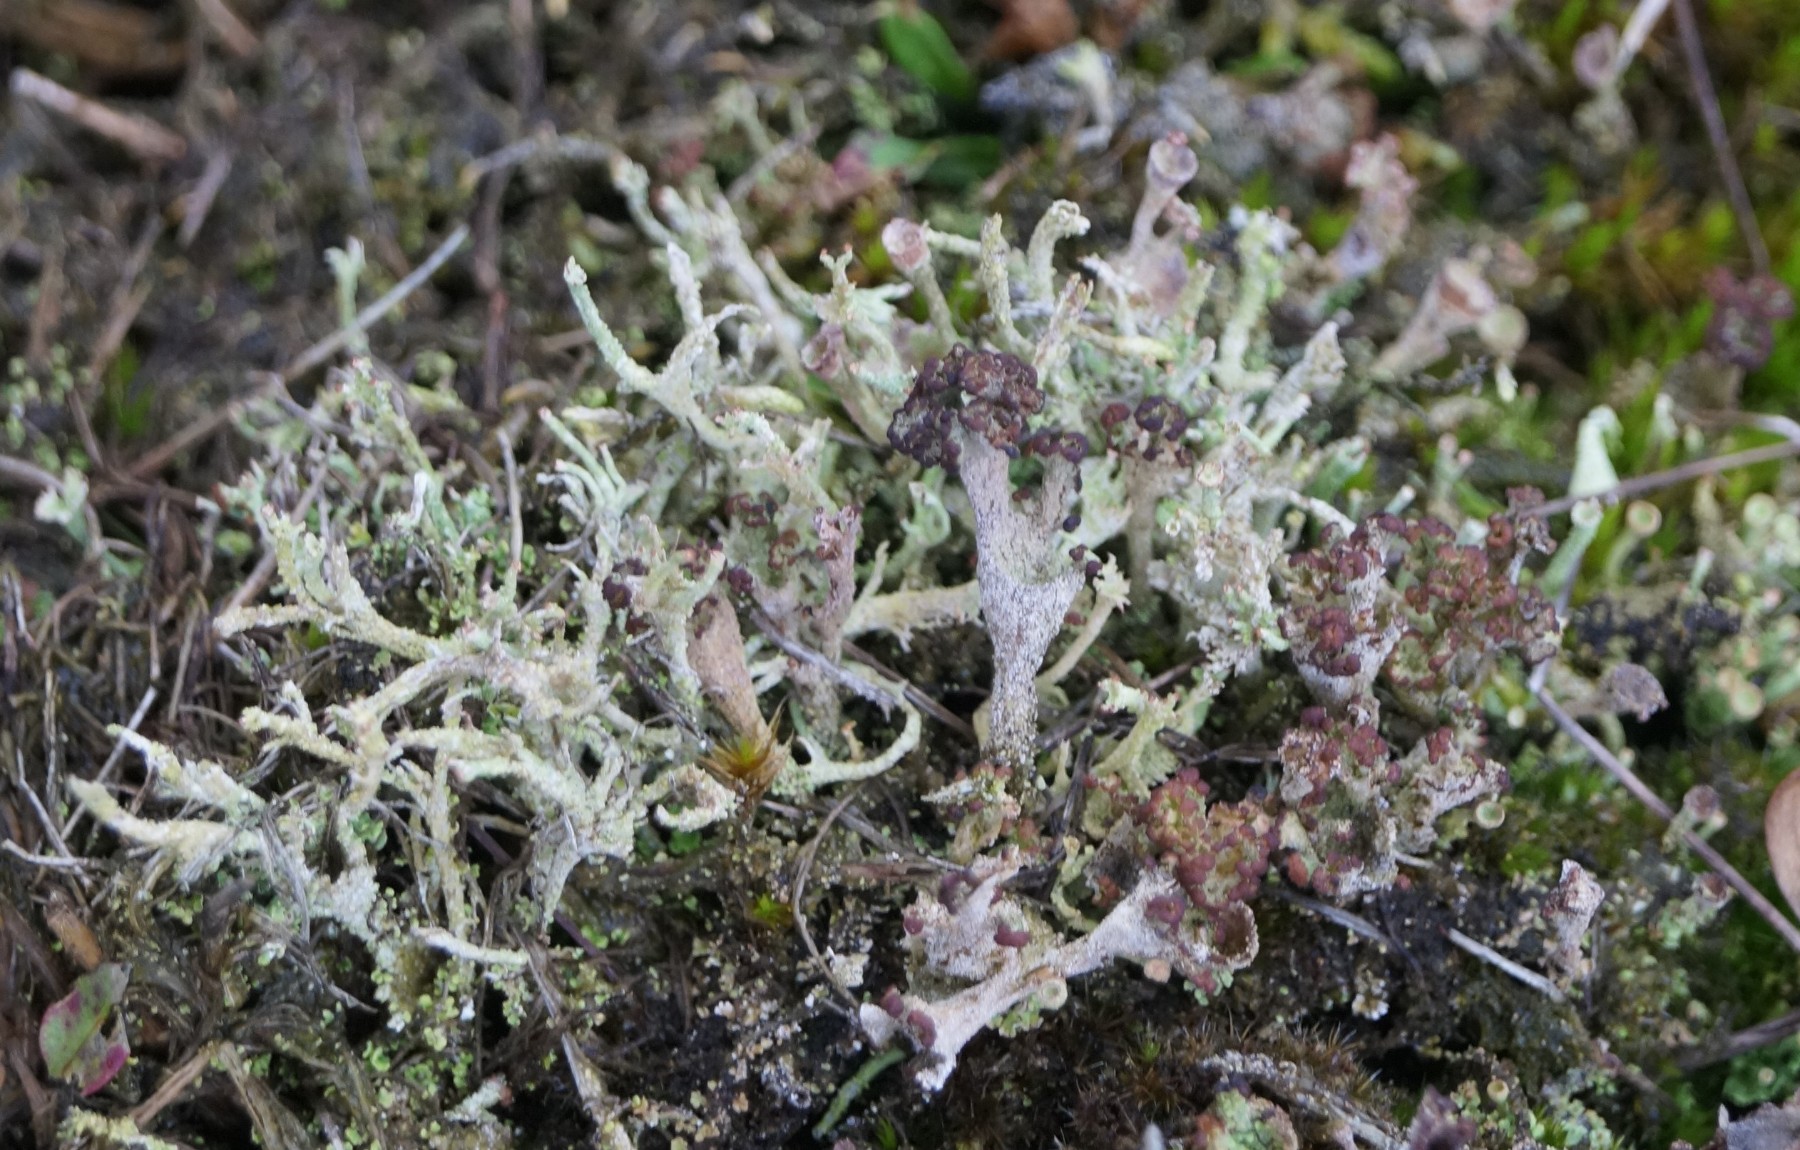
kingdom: Fungi
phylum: Ascomycota
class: Lecanoromycetes
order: Lecanorales
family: Cladoniaceae
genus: Cladonia
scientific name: Cladonia
